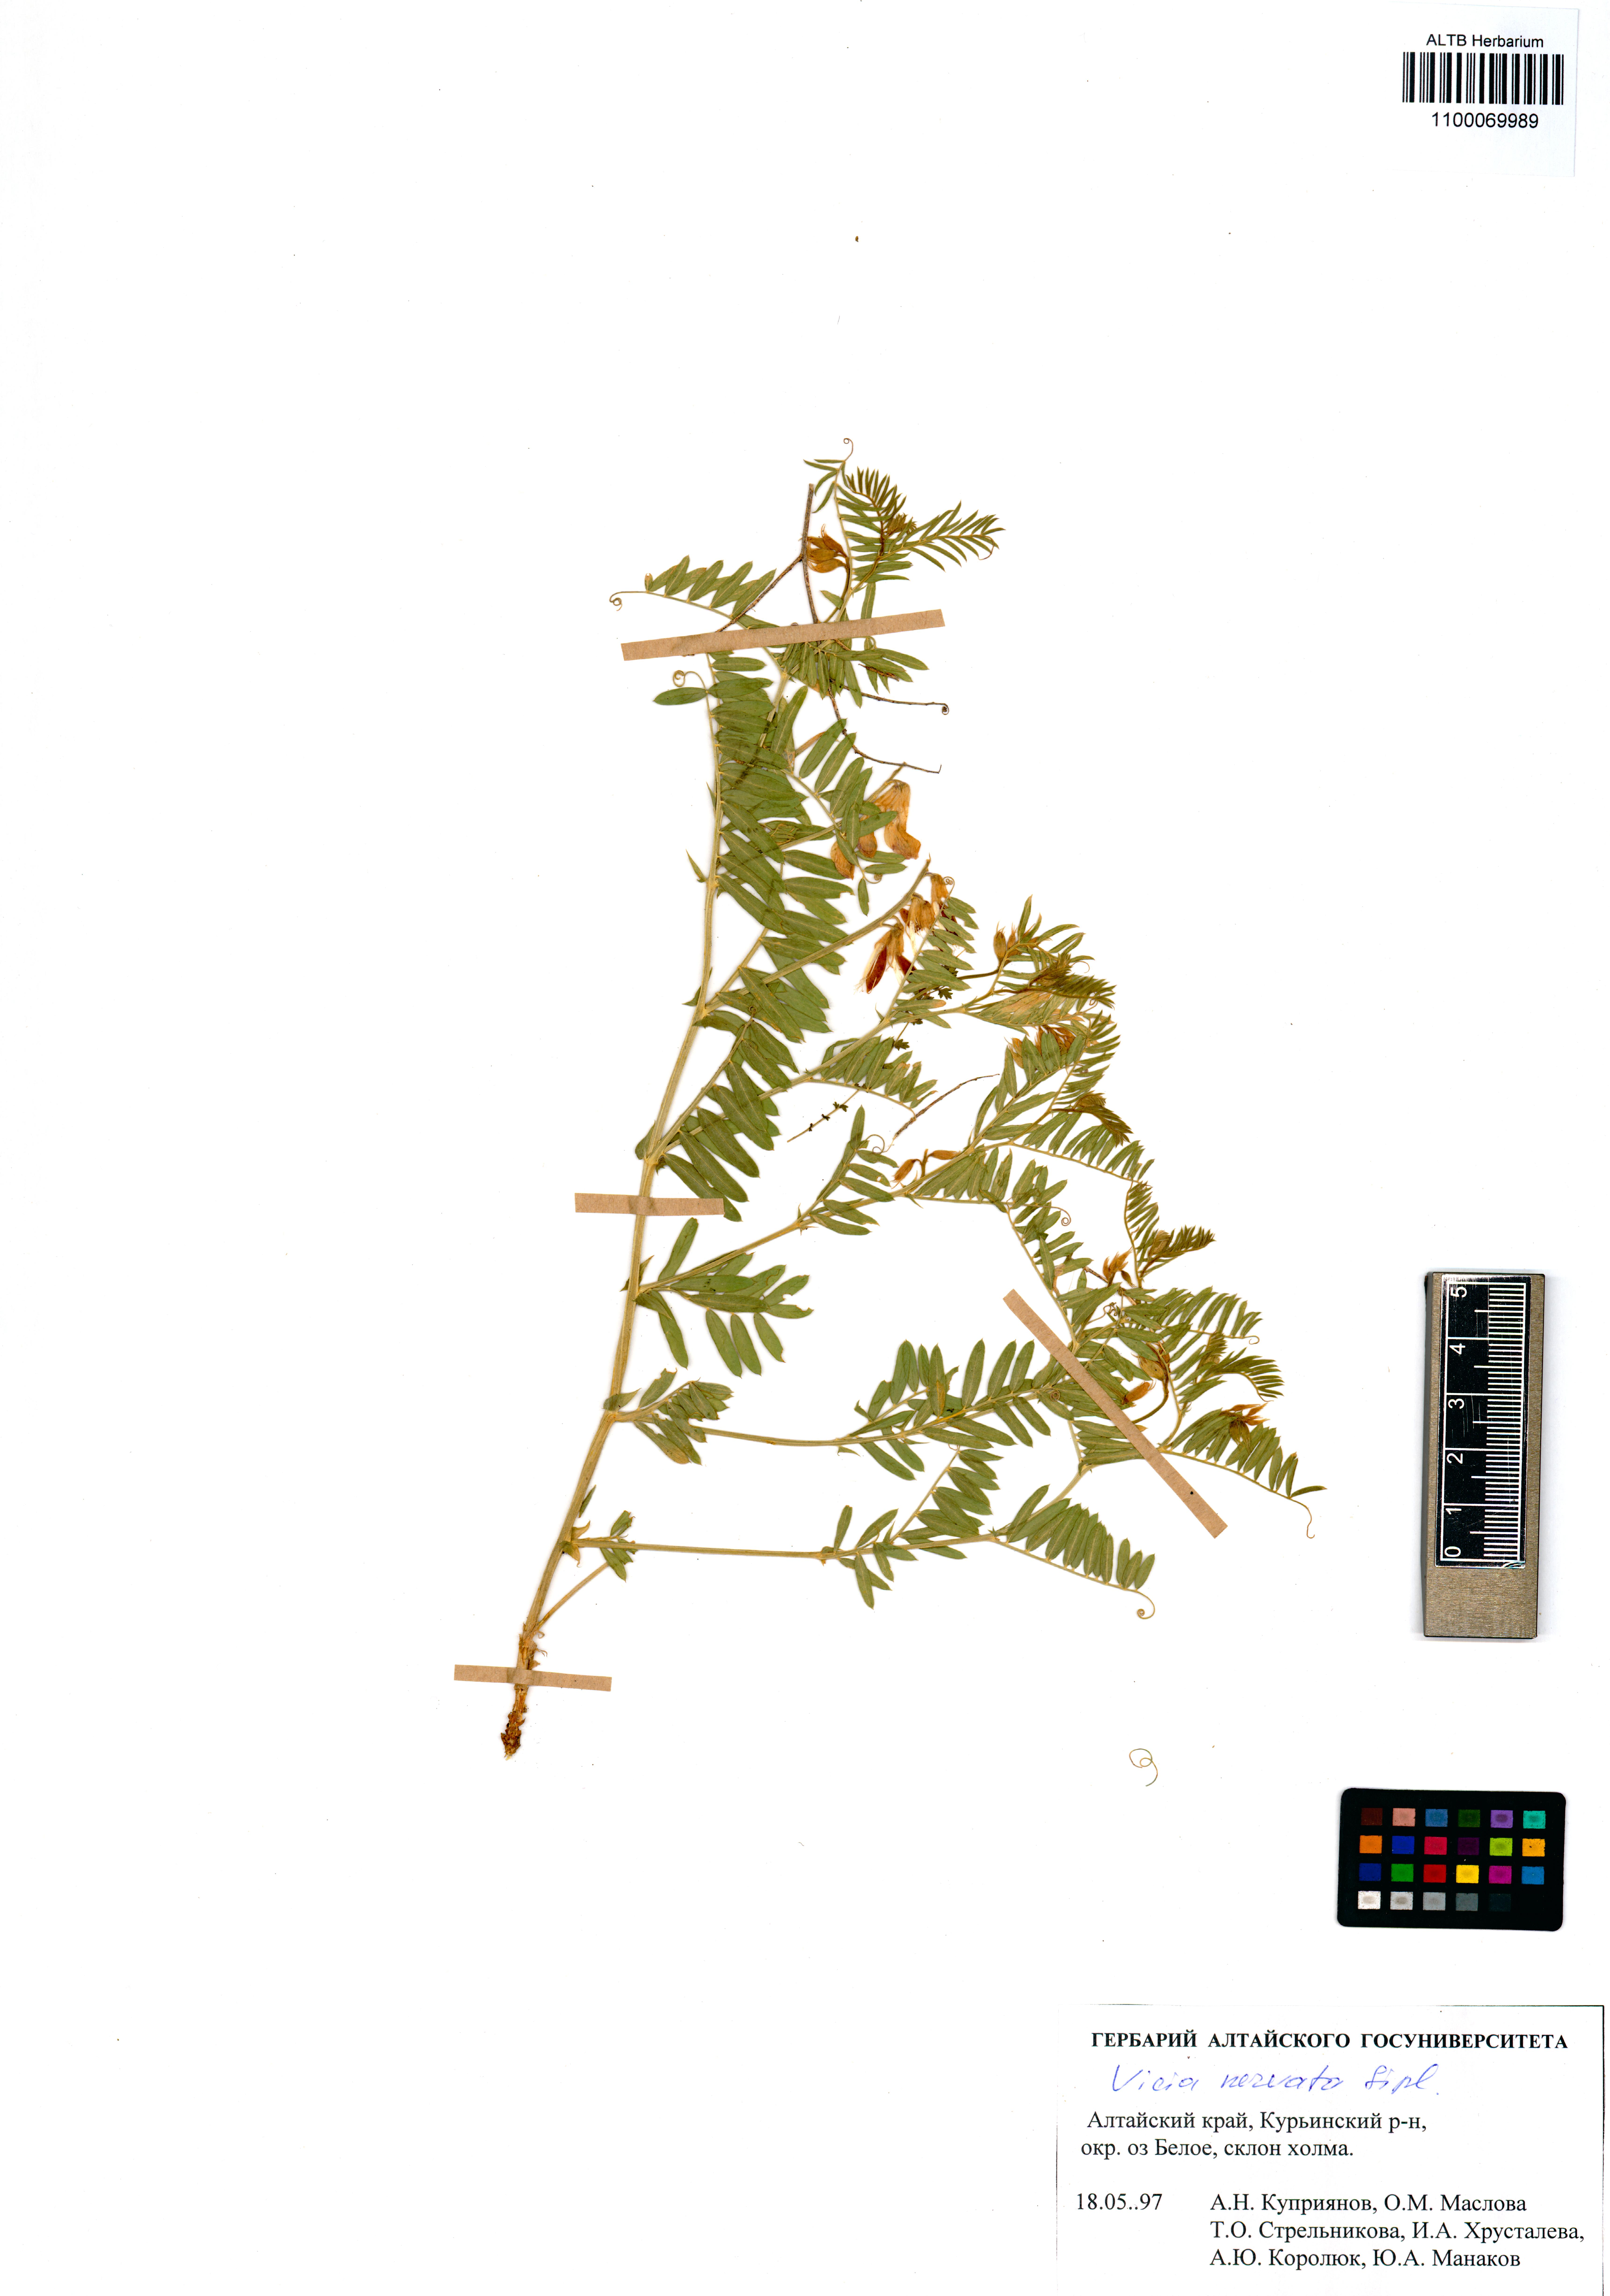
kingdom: Plantae
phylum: Tracheophyta
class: Magnoliopsida
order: Fabales
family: Fabaceae
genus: Vicia
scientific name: Vicia multicaulis
